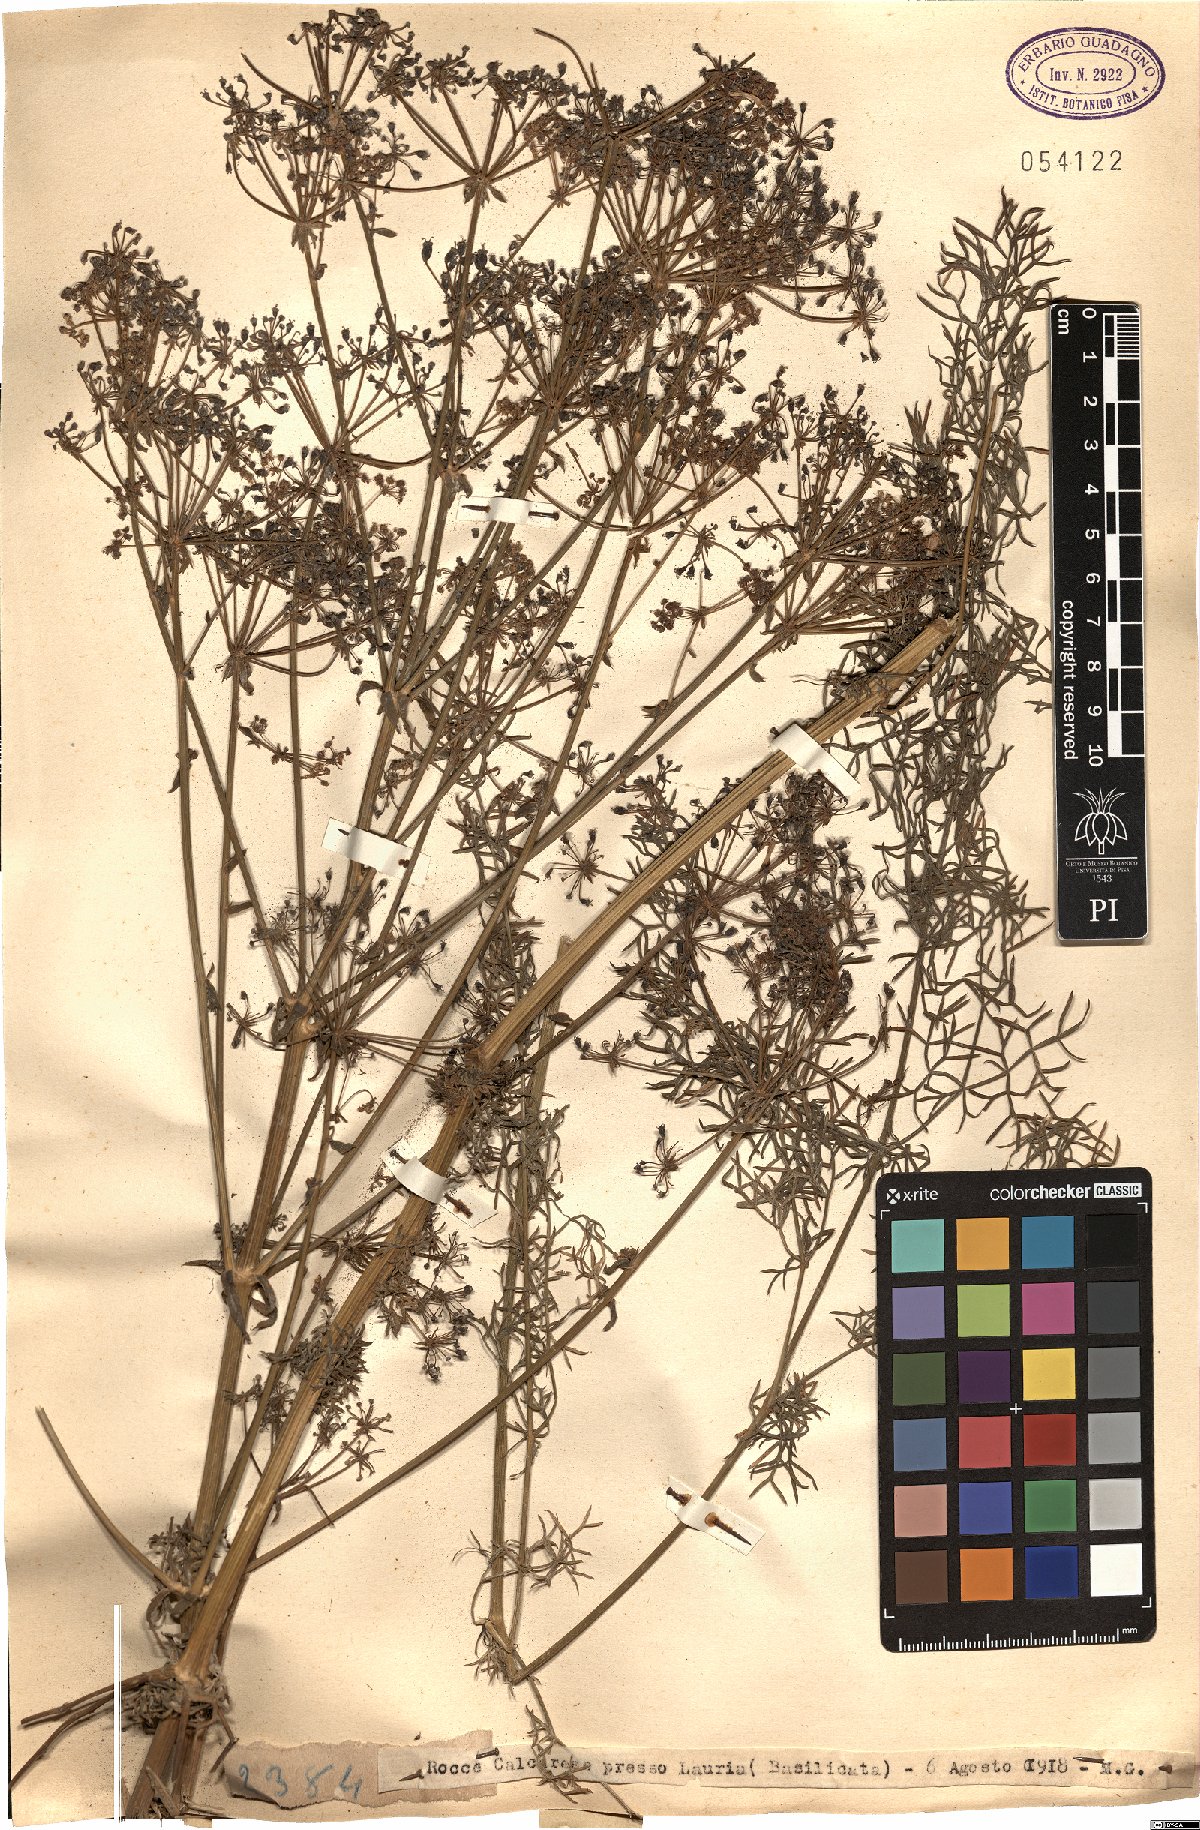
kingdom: Plantae
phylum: Tracheophyta
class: Magnoliopsida
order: Apiales
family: Apiaceae
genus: Ferula
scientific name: Ferula
